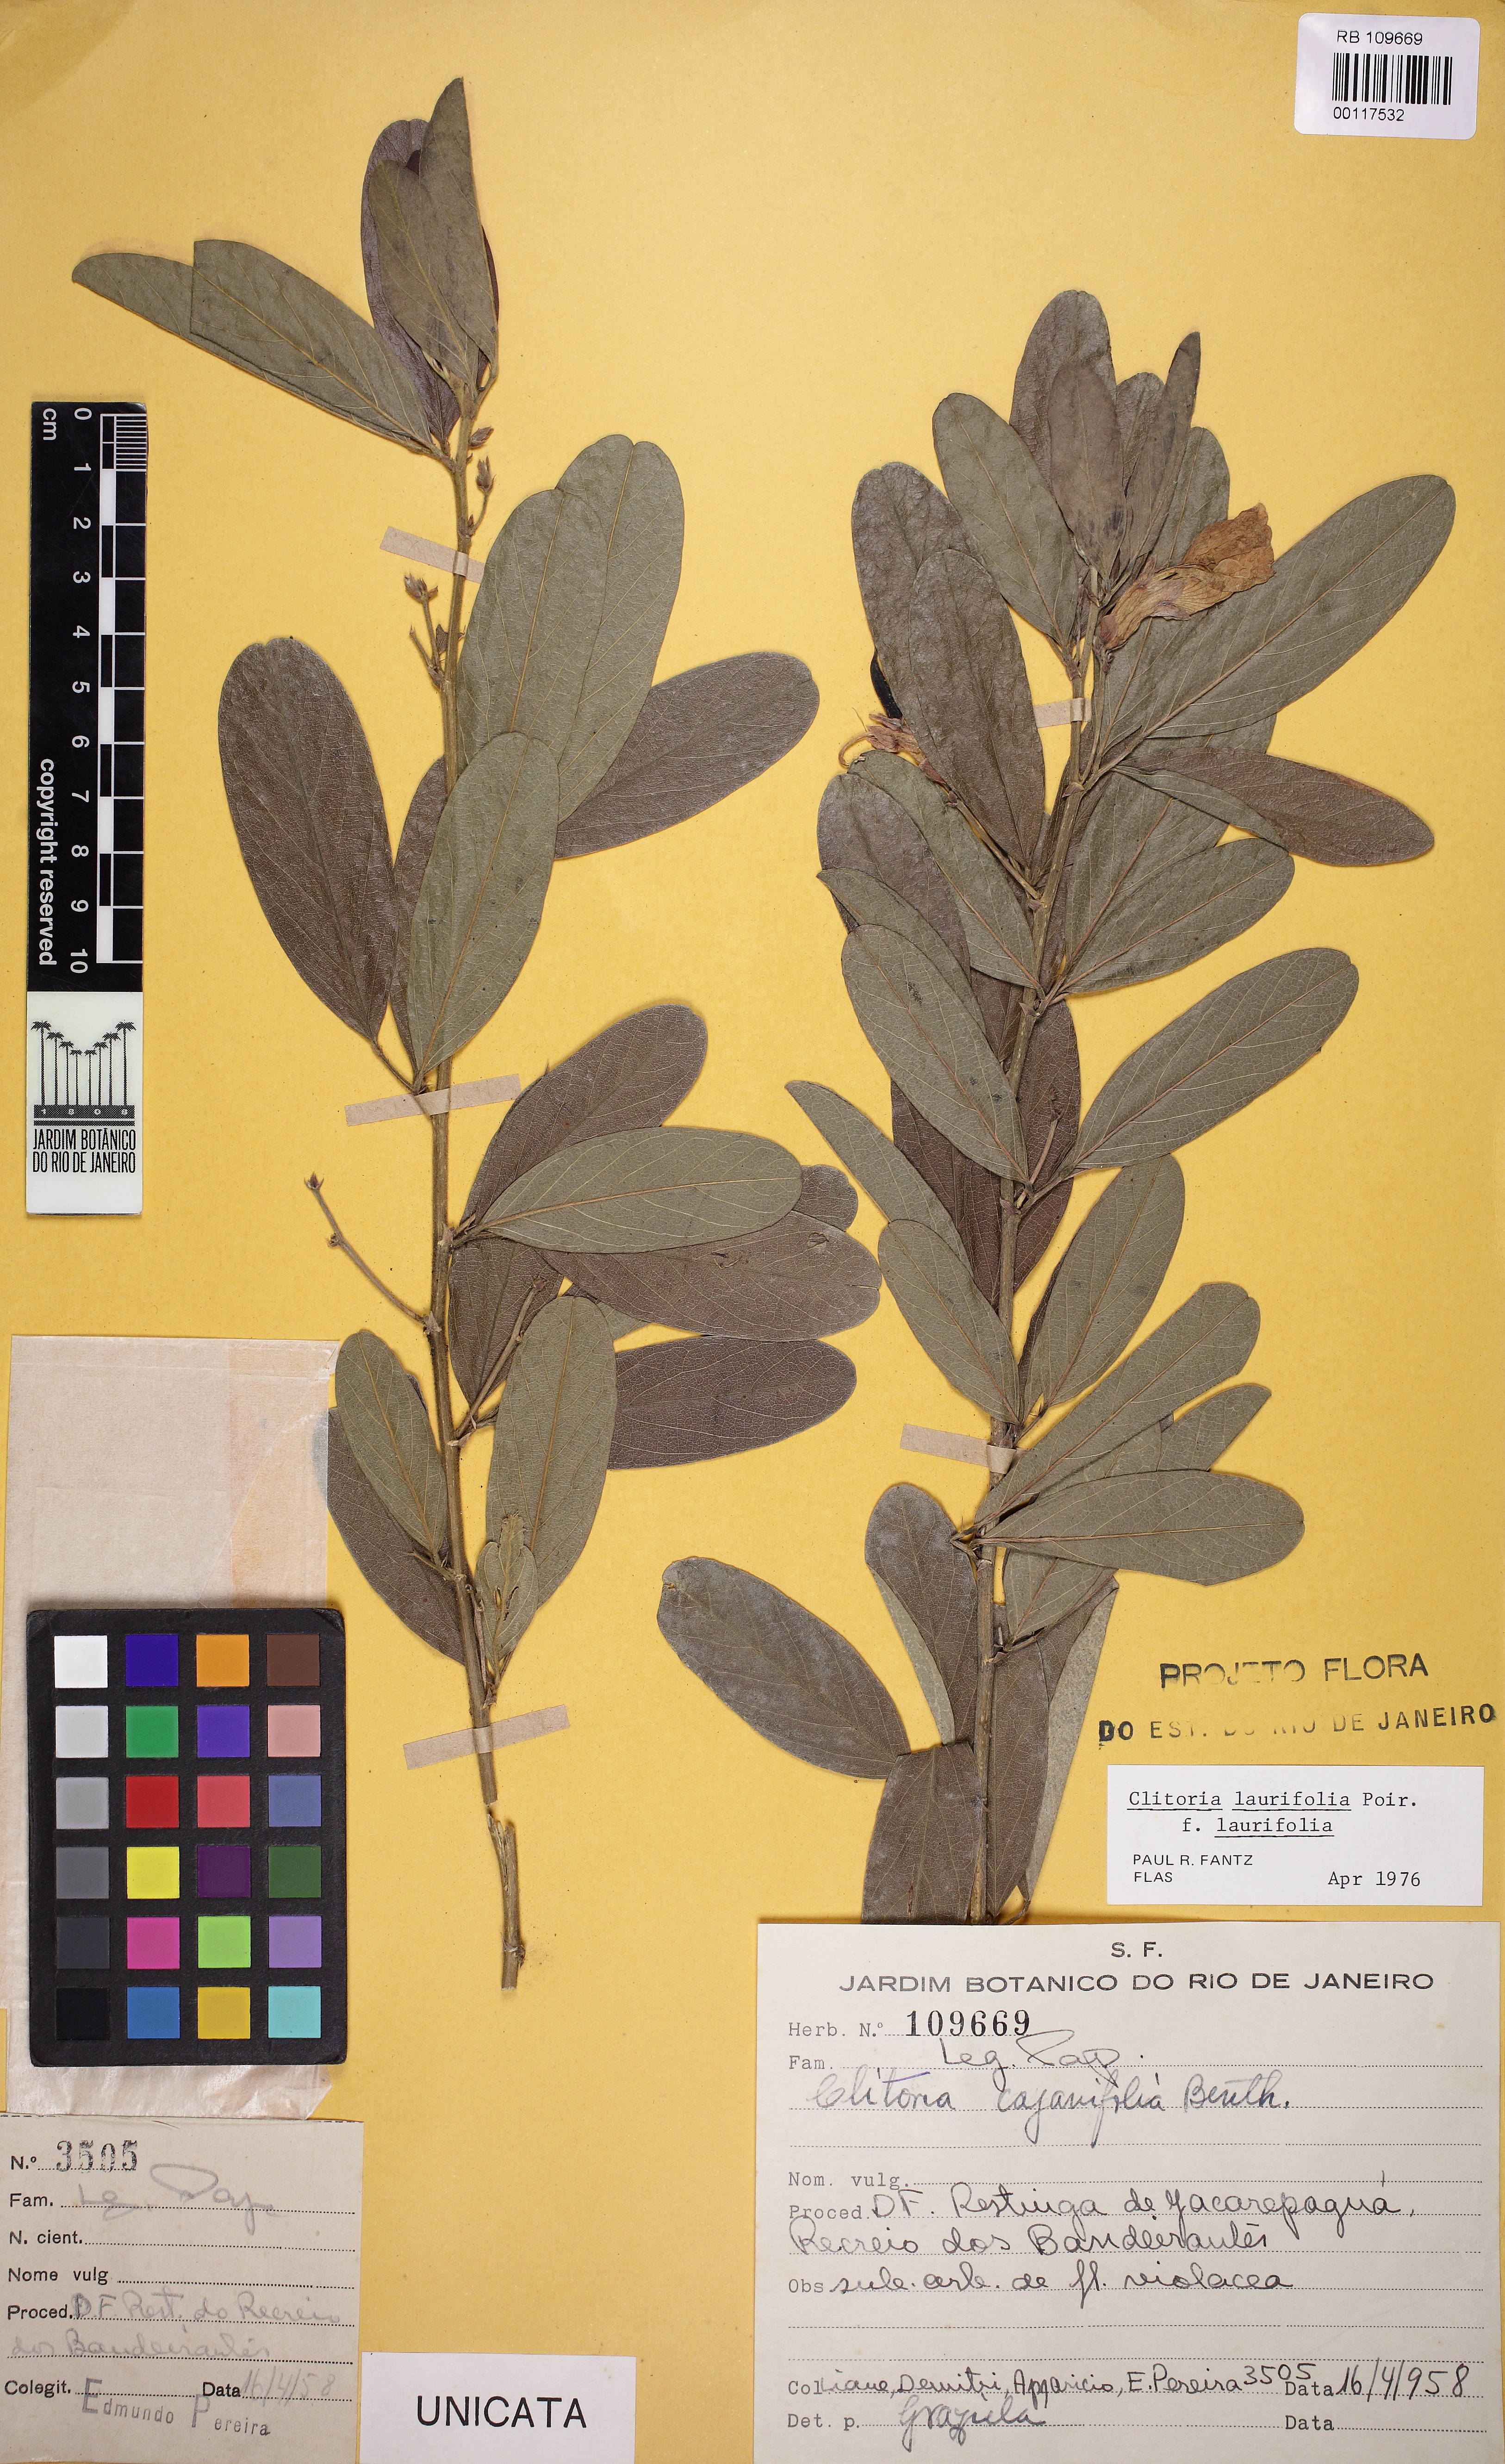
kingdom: Plantae
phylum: Tracheophyta
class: Magnoliopsida
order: Fabales
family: Fabaceae
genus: Clitoria
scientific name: Clitoria laurifolia
